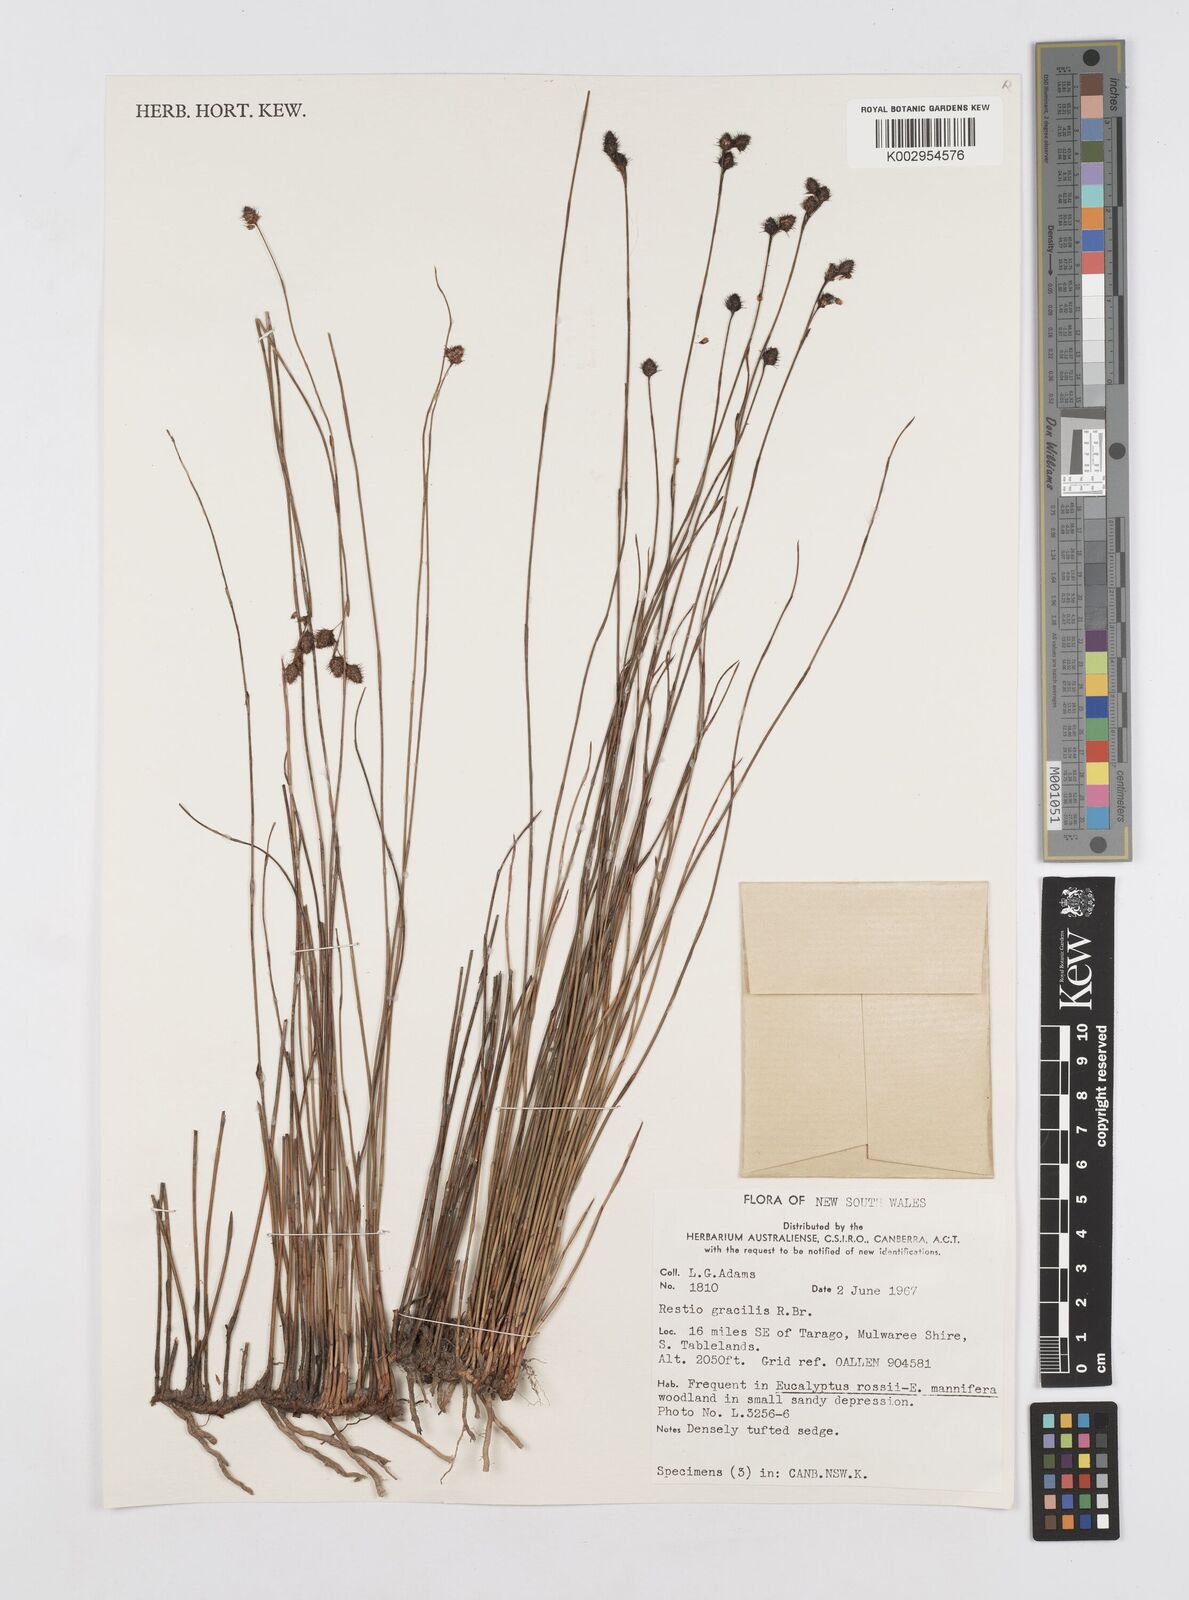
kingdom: Plantae
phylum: Tracheophyta
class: Liliopsida
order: Poales
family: Restionaceae
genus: Baloskion
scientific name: Baloskion gracile
